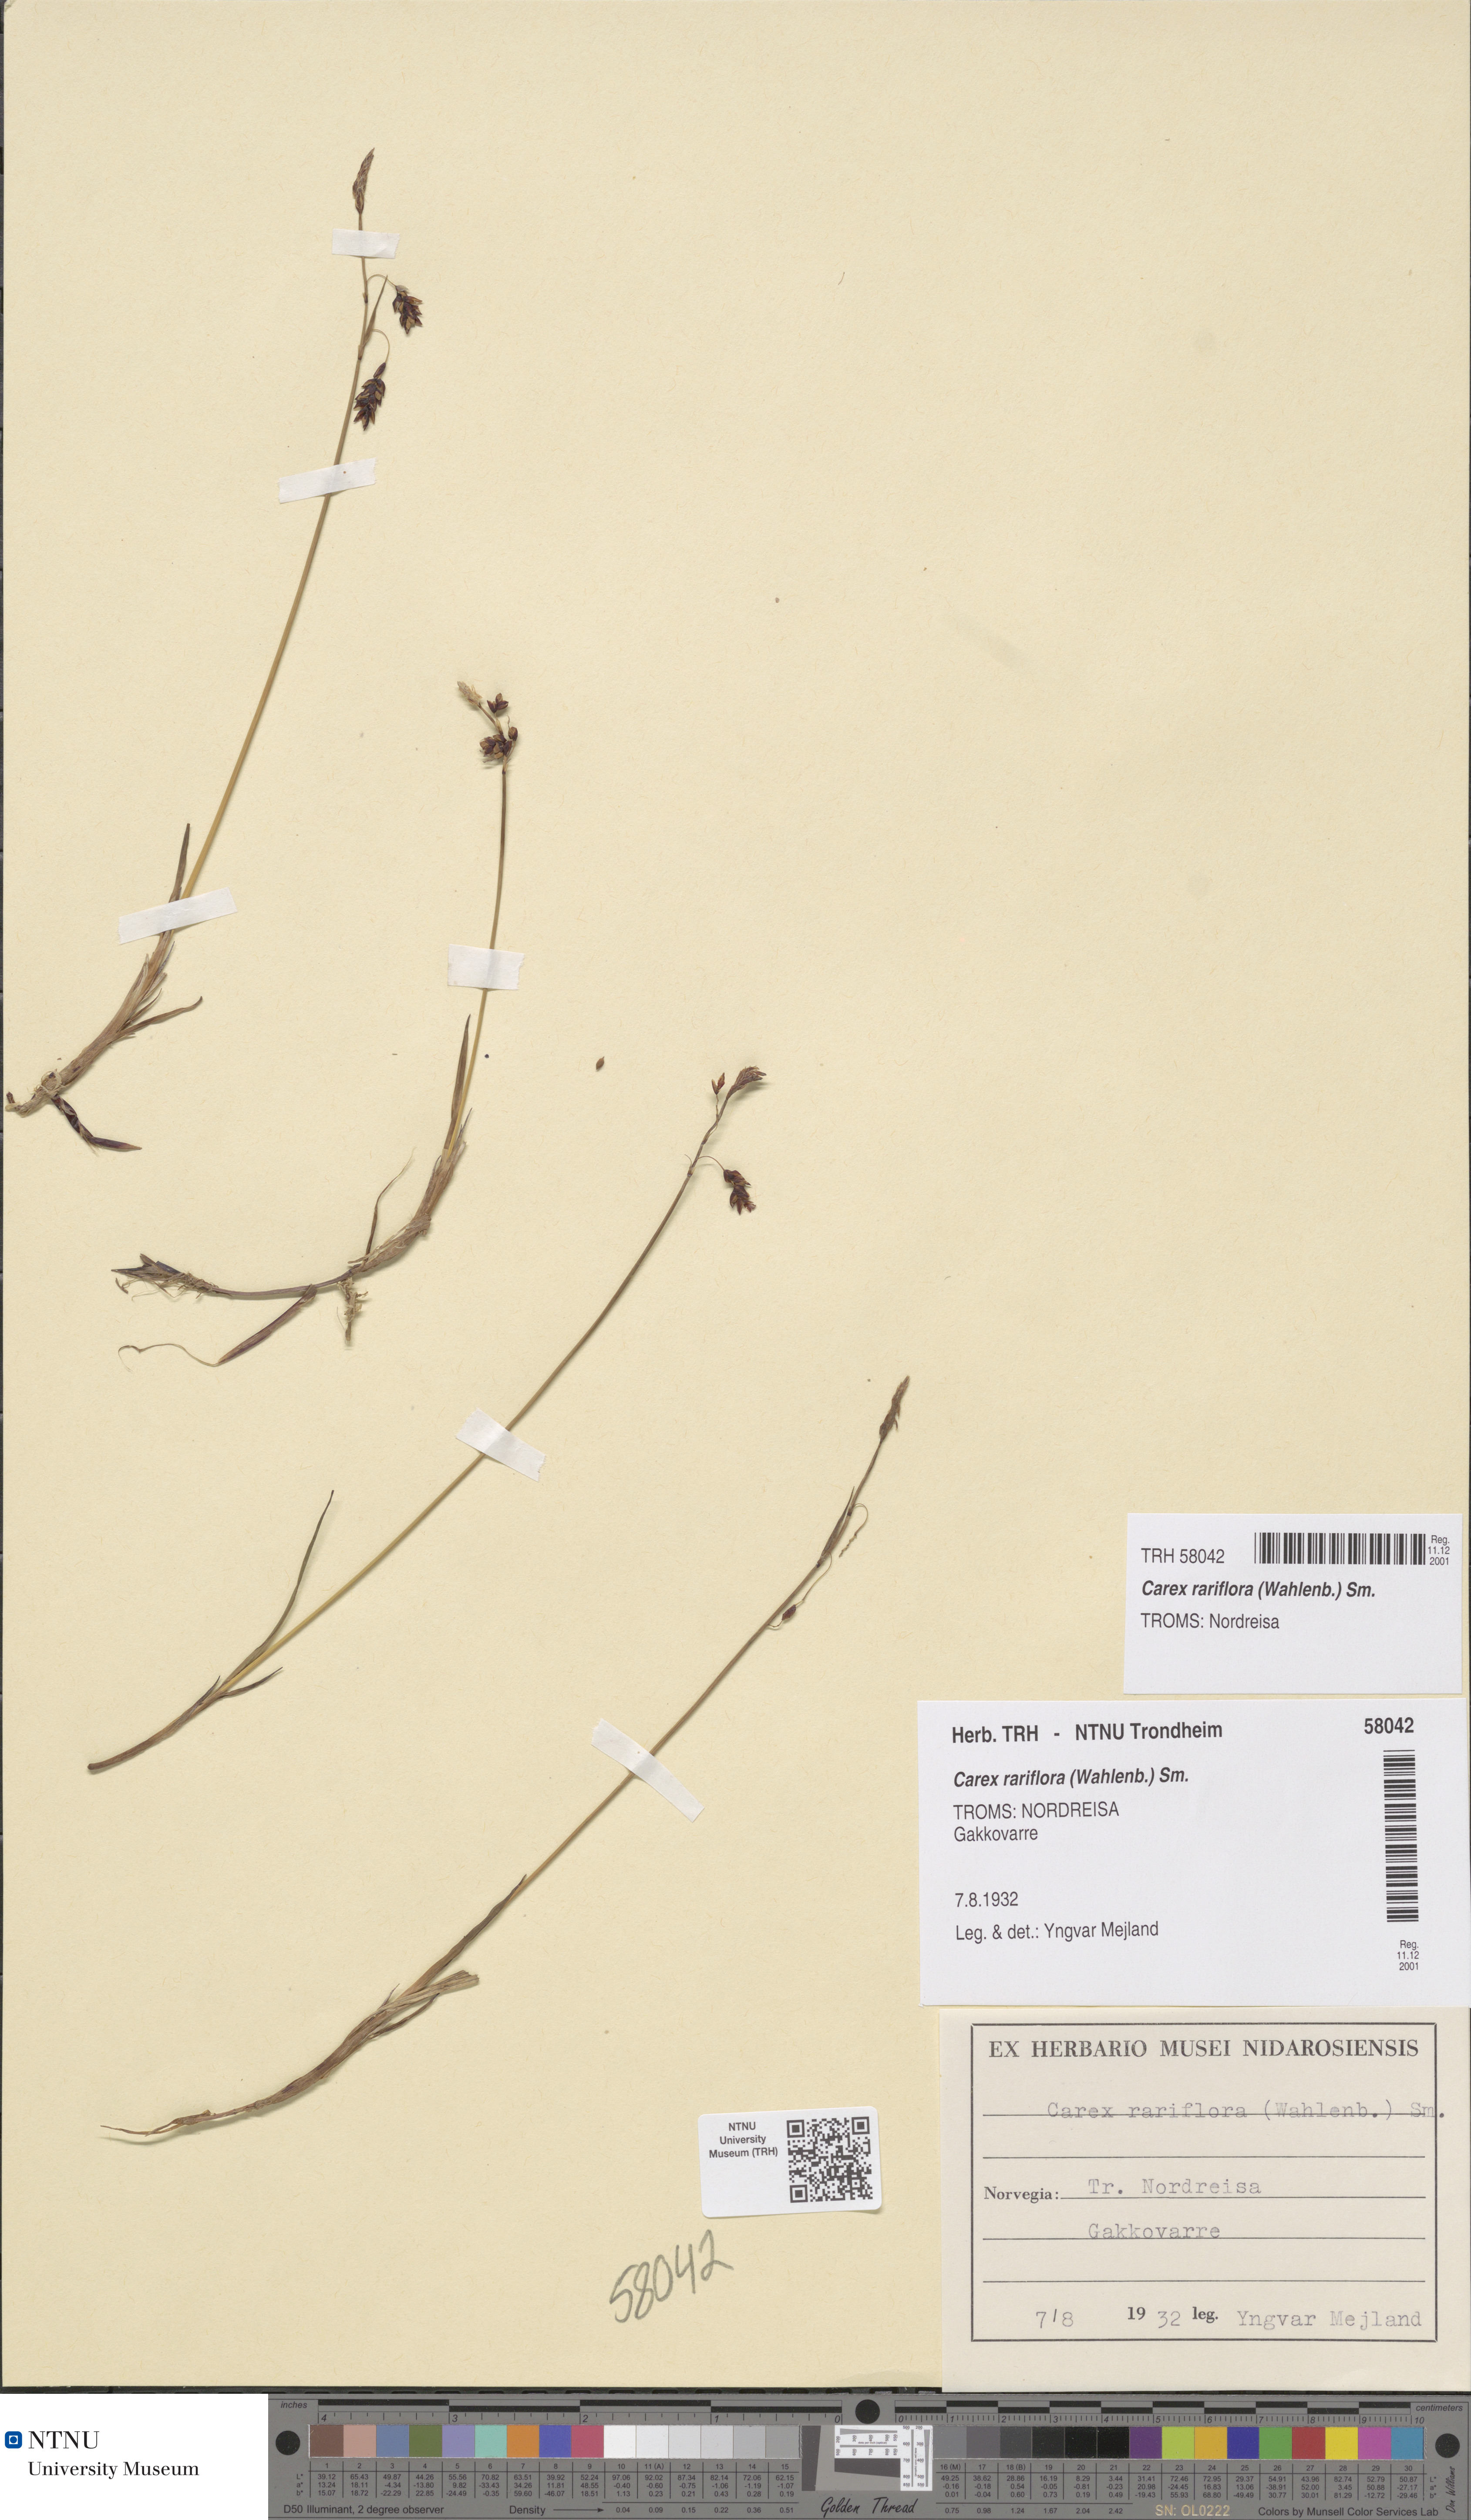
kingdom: Plantae
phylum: Tracheophyta
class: Liliopsida
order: Poales
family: Cyperaceae
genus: Carex
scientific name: Carex rariflora
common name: Loose-flowered alpine sedge
